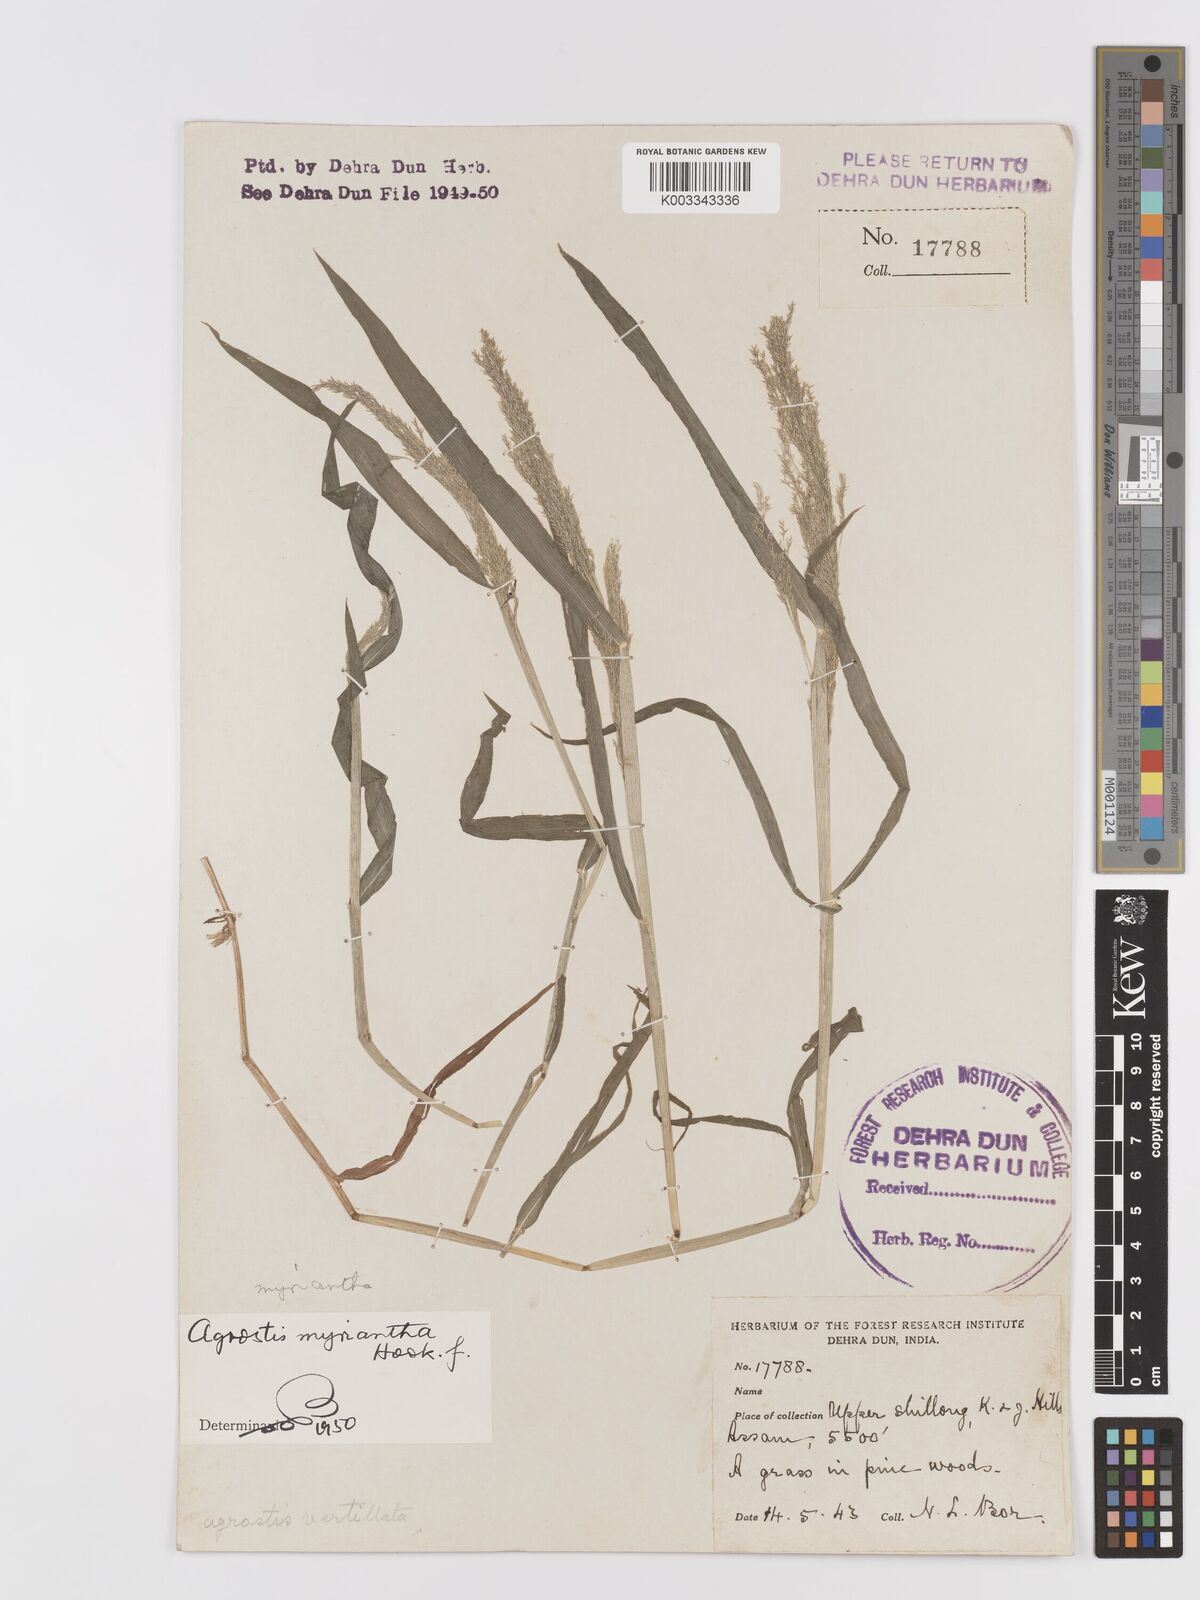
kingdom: Plantae
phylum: Tracheophyta
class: Liliopsida
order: Poales
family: Poaceae
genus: Agrostis
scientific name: Agrostis micrantha
